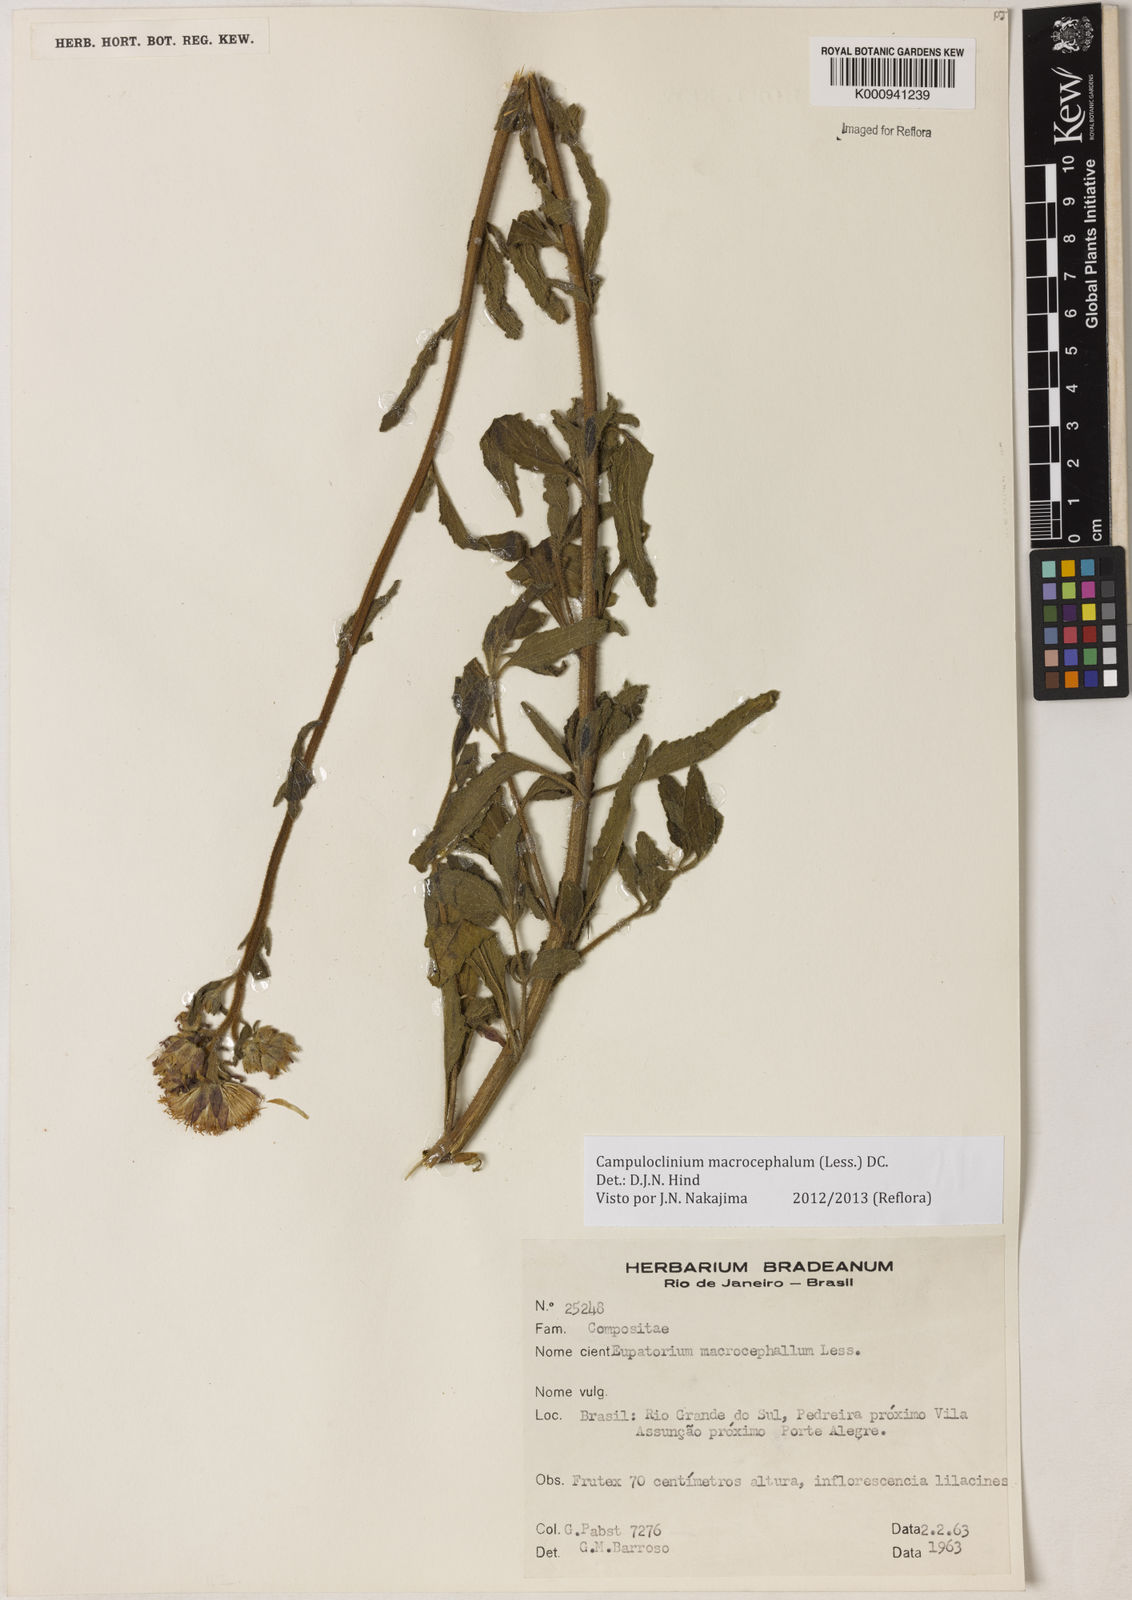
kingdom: Plantae
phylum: Tracheophyta
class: Magnoliopsida
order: Asterales
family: Asteraceae
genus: Campuloclinium
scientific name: Campuloclinium macrocephalum
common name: Pompomweed
